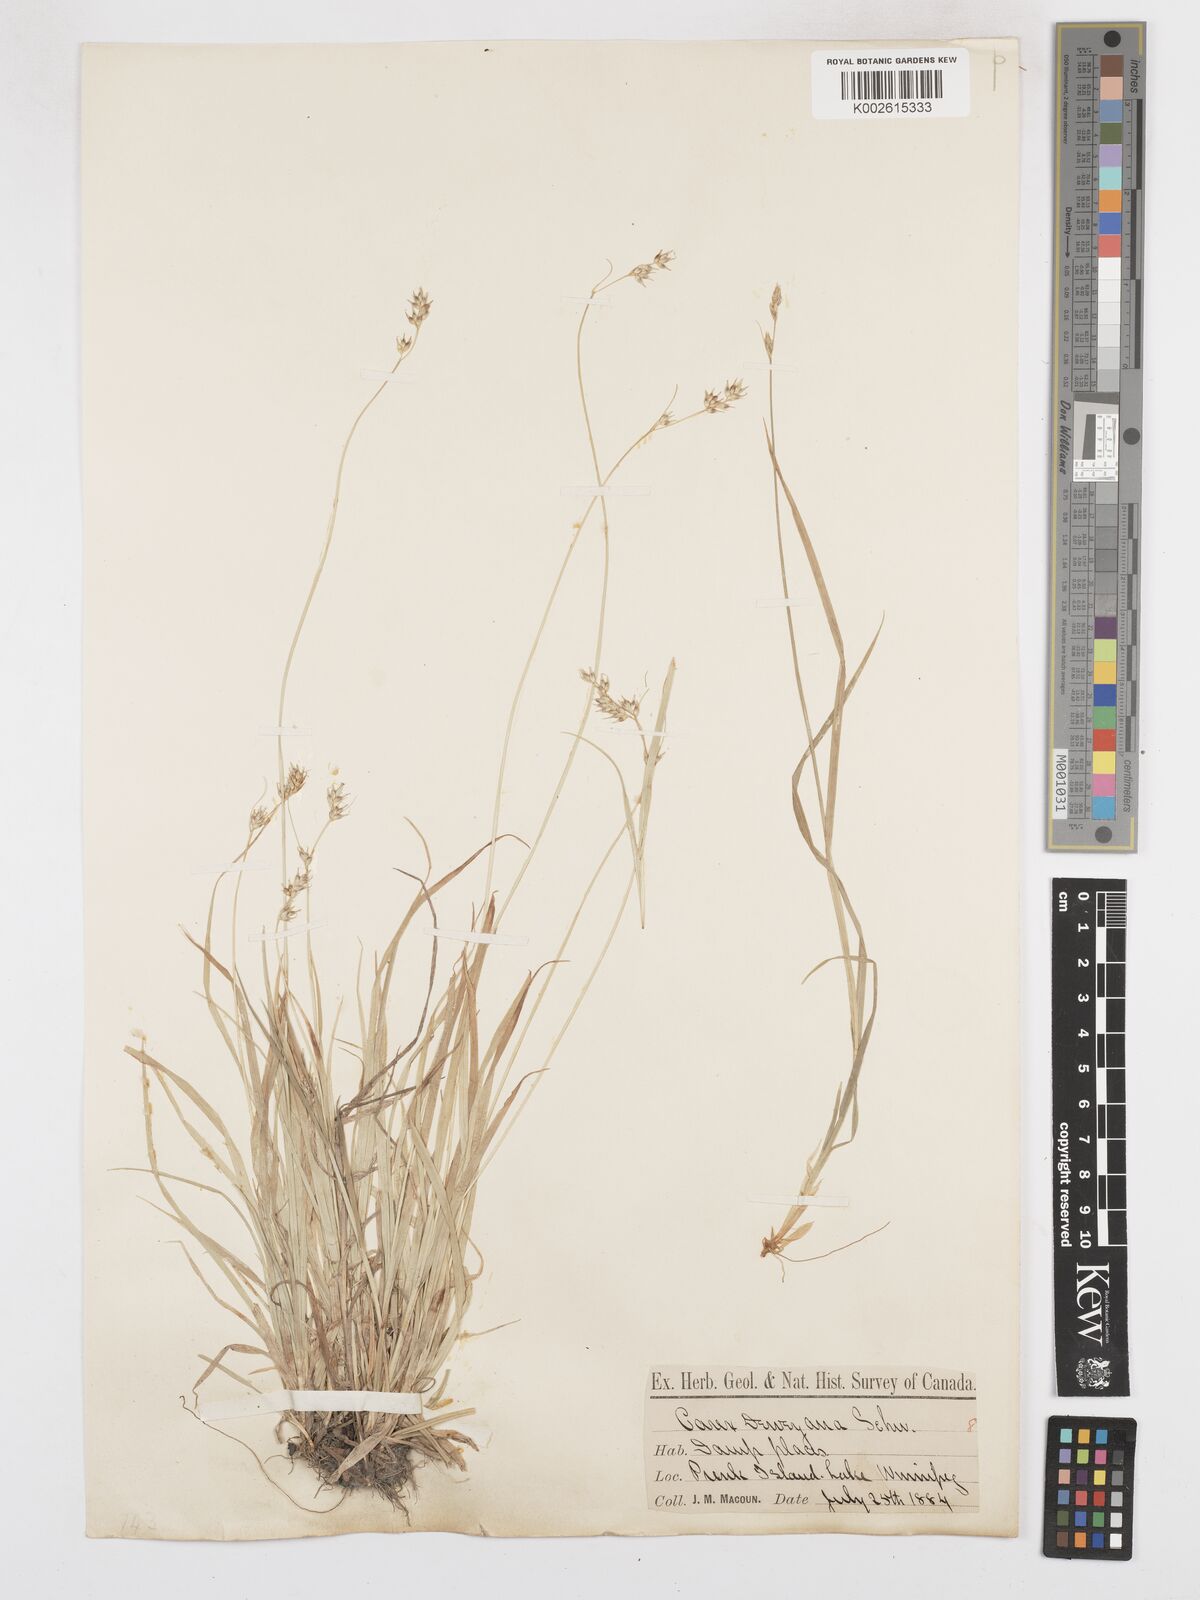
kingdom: Plantae
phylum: Tracheophyta
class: Liliopsida
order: Poales
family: Cyperaceae
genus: Carex
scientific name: Carex deweyana
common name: Dewey's sedge
